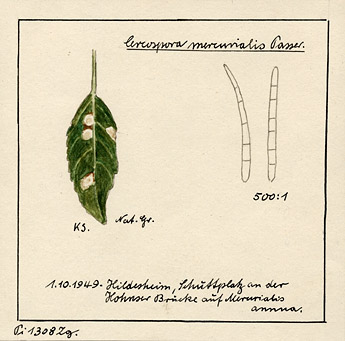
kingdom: Plantae
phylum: Tracheophyta
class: Magnoliopsida
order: Malpighiales
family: Euphorbiaceae
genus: Mercurialis
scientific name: Mercurialis annua
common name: Annual mercury
